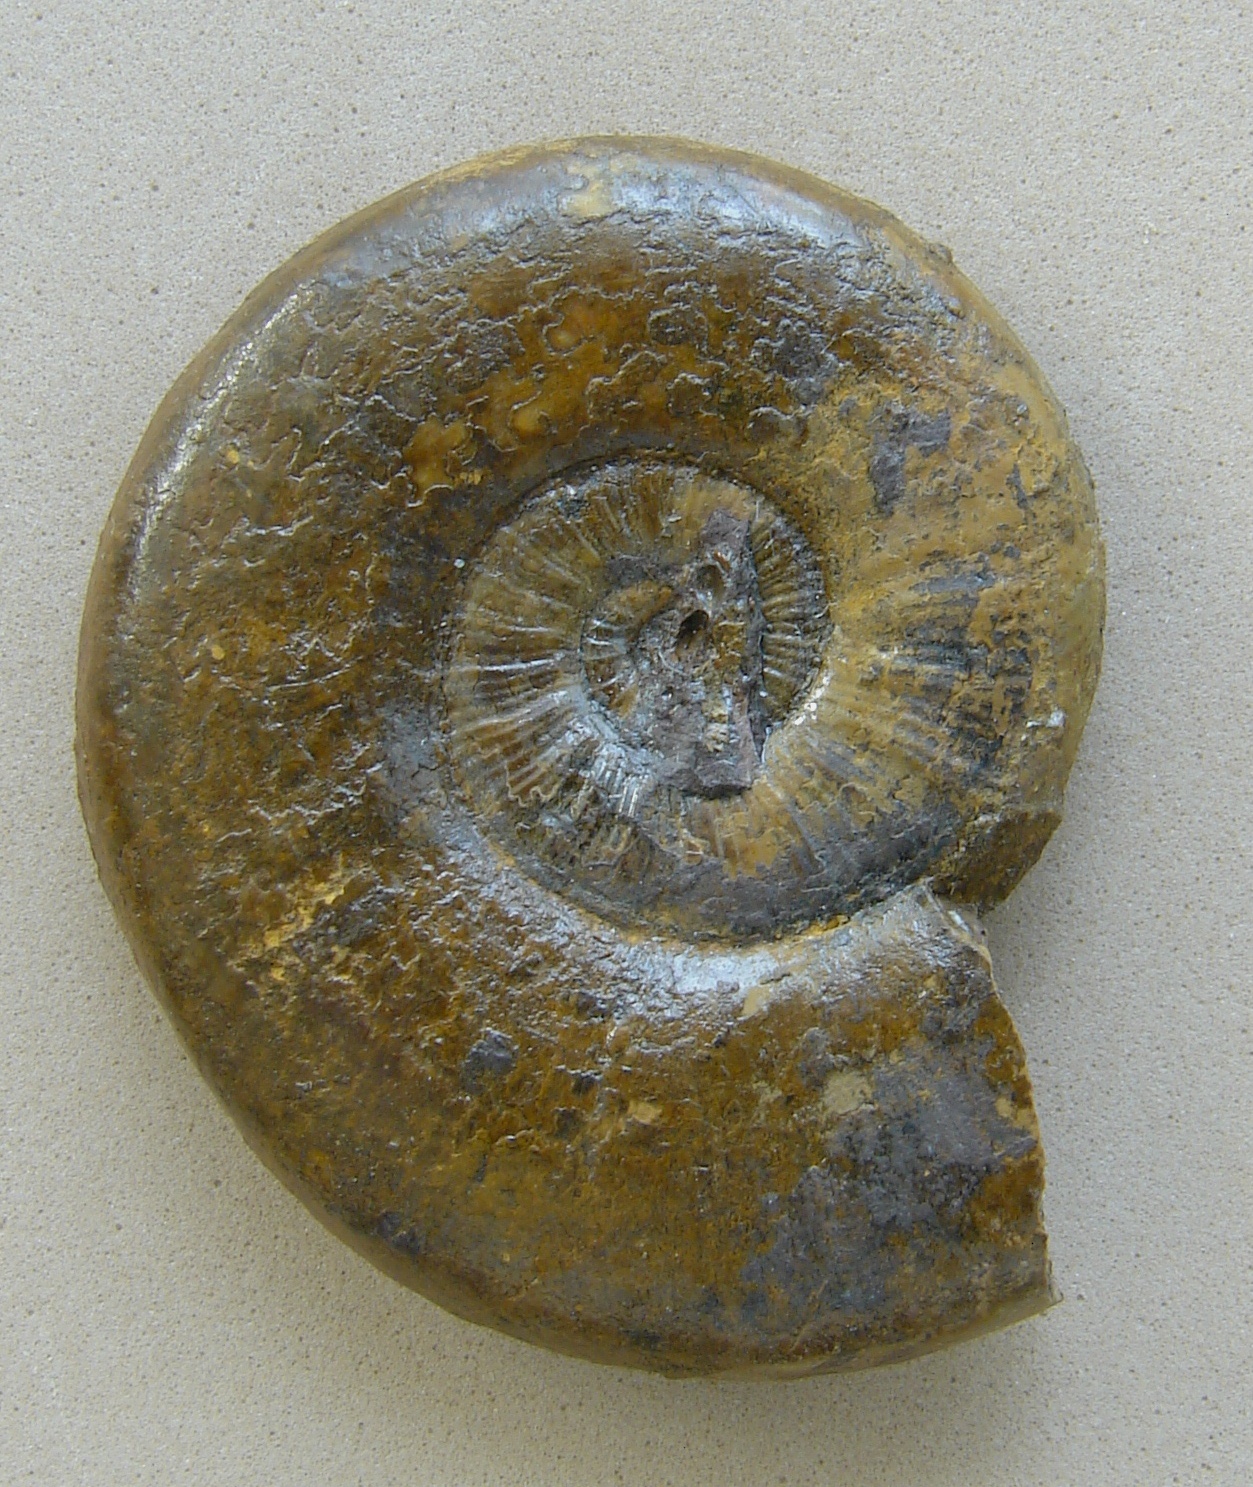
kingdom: Animalia
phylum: Mollusca
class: Cephalopoda
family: Hildoceratidae
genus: Pleydellia
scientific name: Pleydellia mactra
